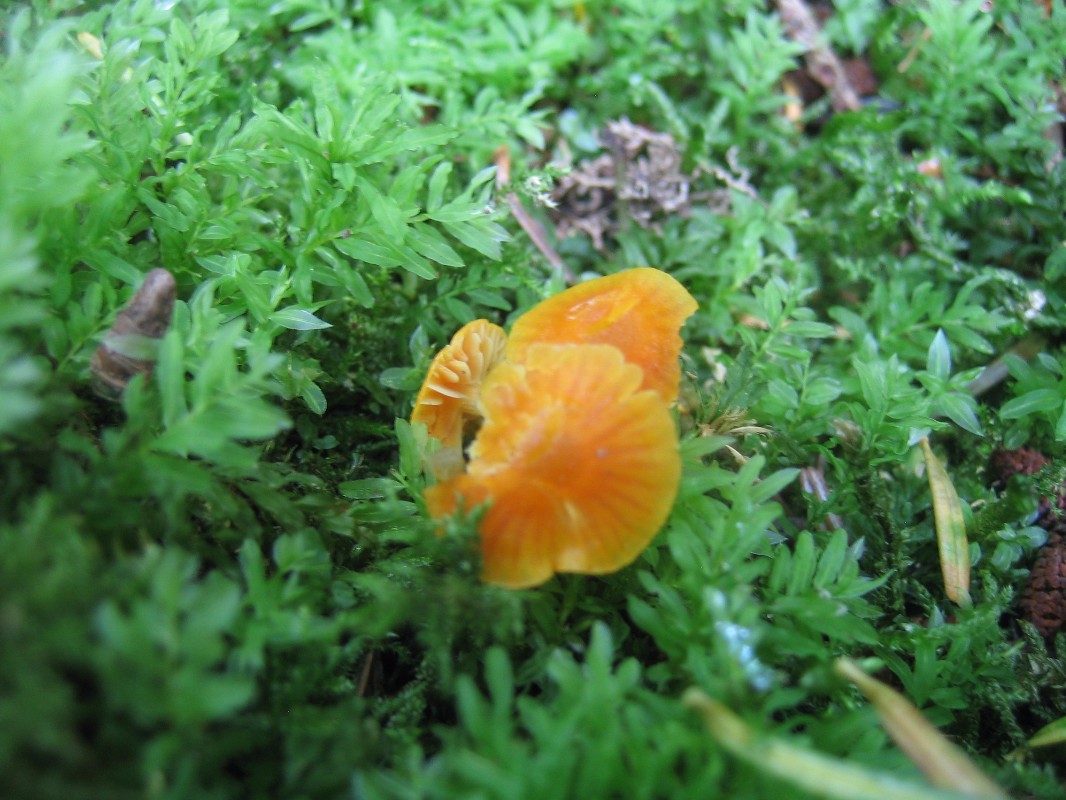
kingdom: Fungi
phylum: Basidiomycota
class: Agaricomycetes
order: Agaricales
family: Hygrophoraceae
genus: Hygrocybe
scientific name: Hygrocybe
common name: vokshat
